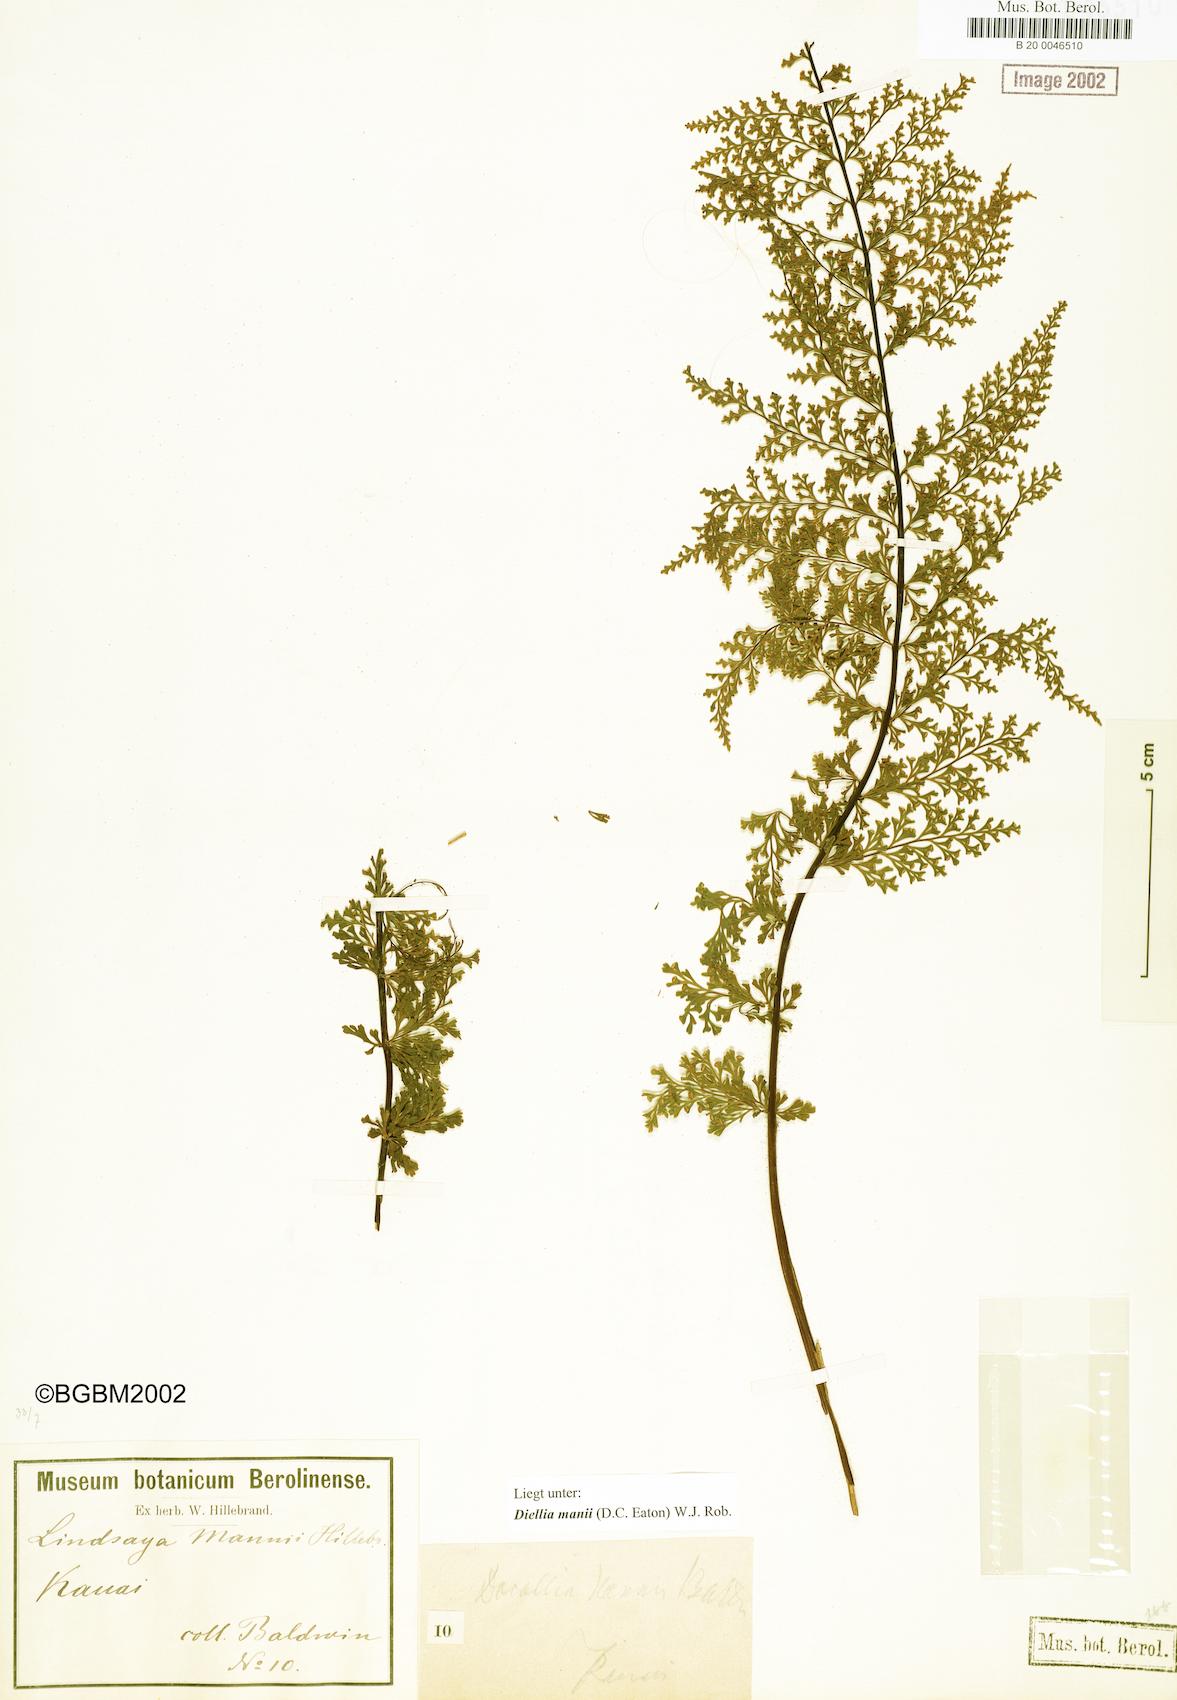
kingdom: Plantae
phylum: Tracheophyta
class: Polypodiopsida
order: Polypodiales
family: Aspleniaceae
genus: Asplenium
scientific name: Asplenium dielmannii
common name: Mann's island spleenwort
